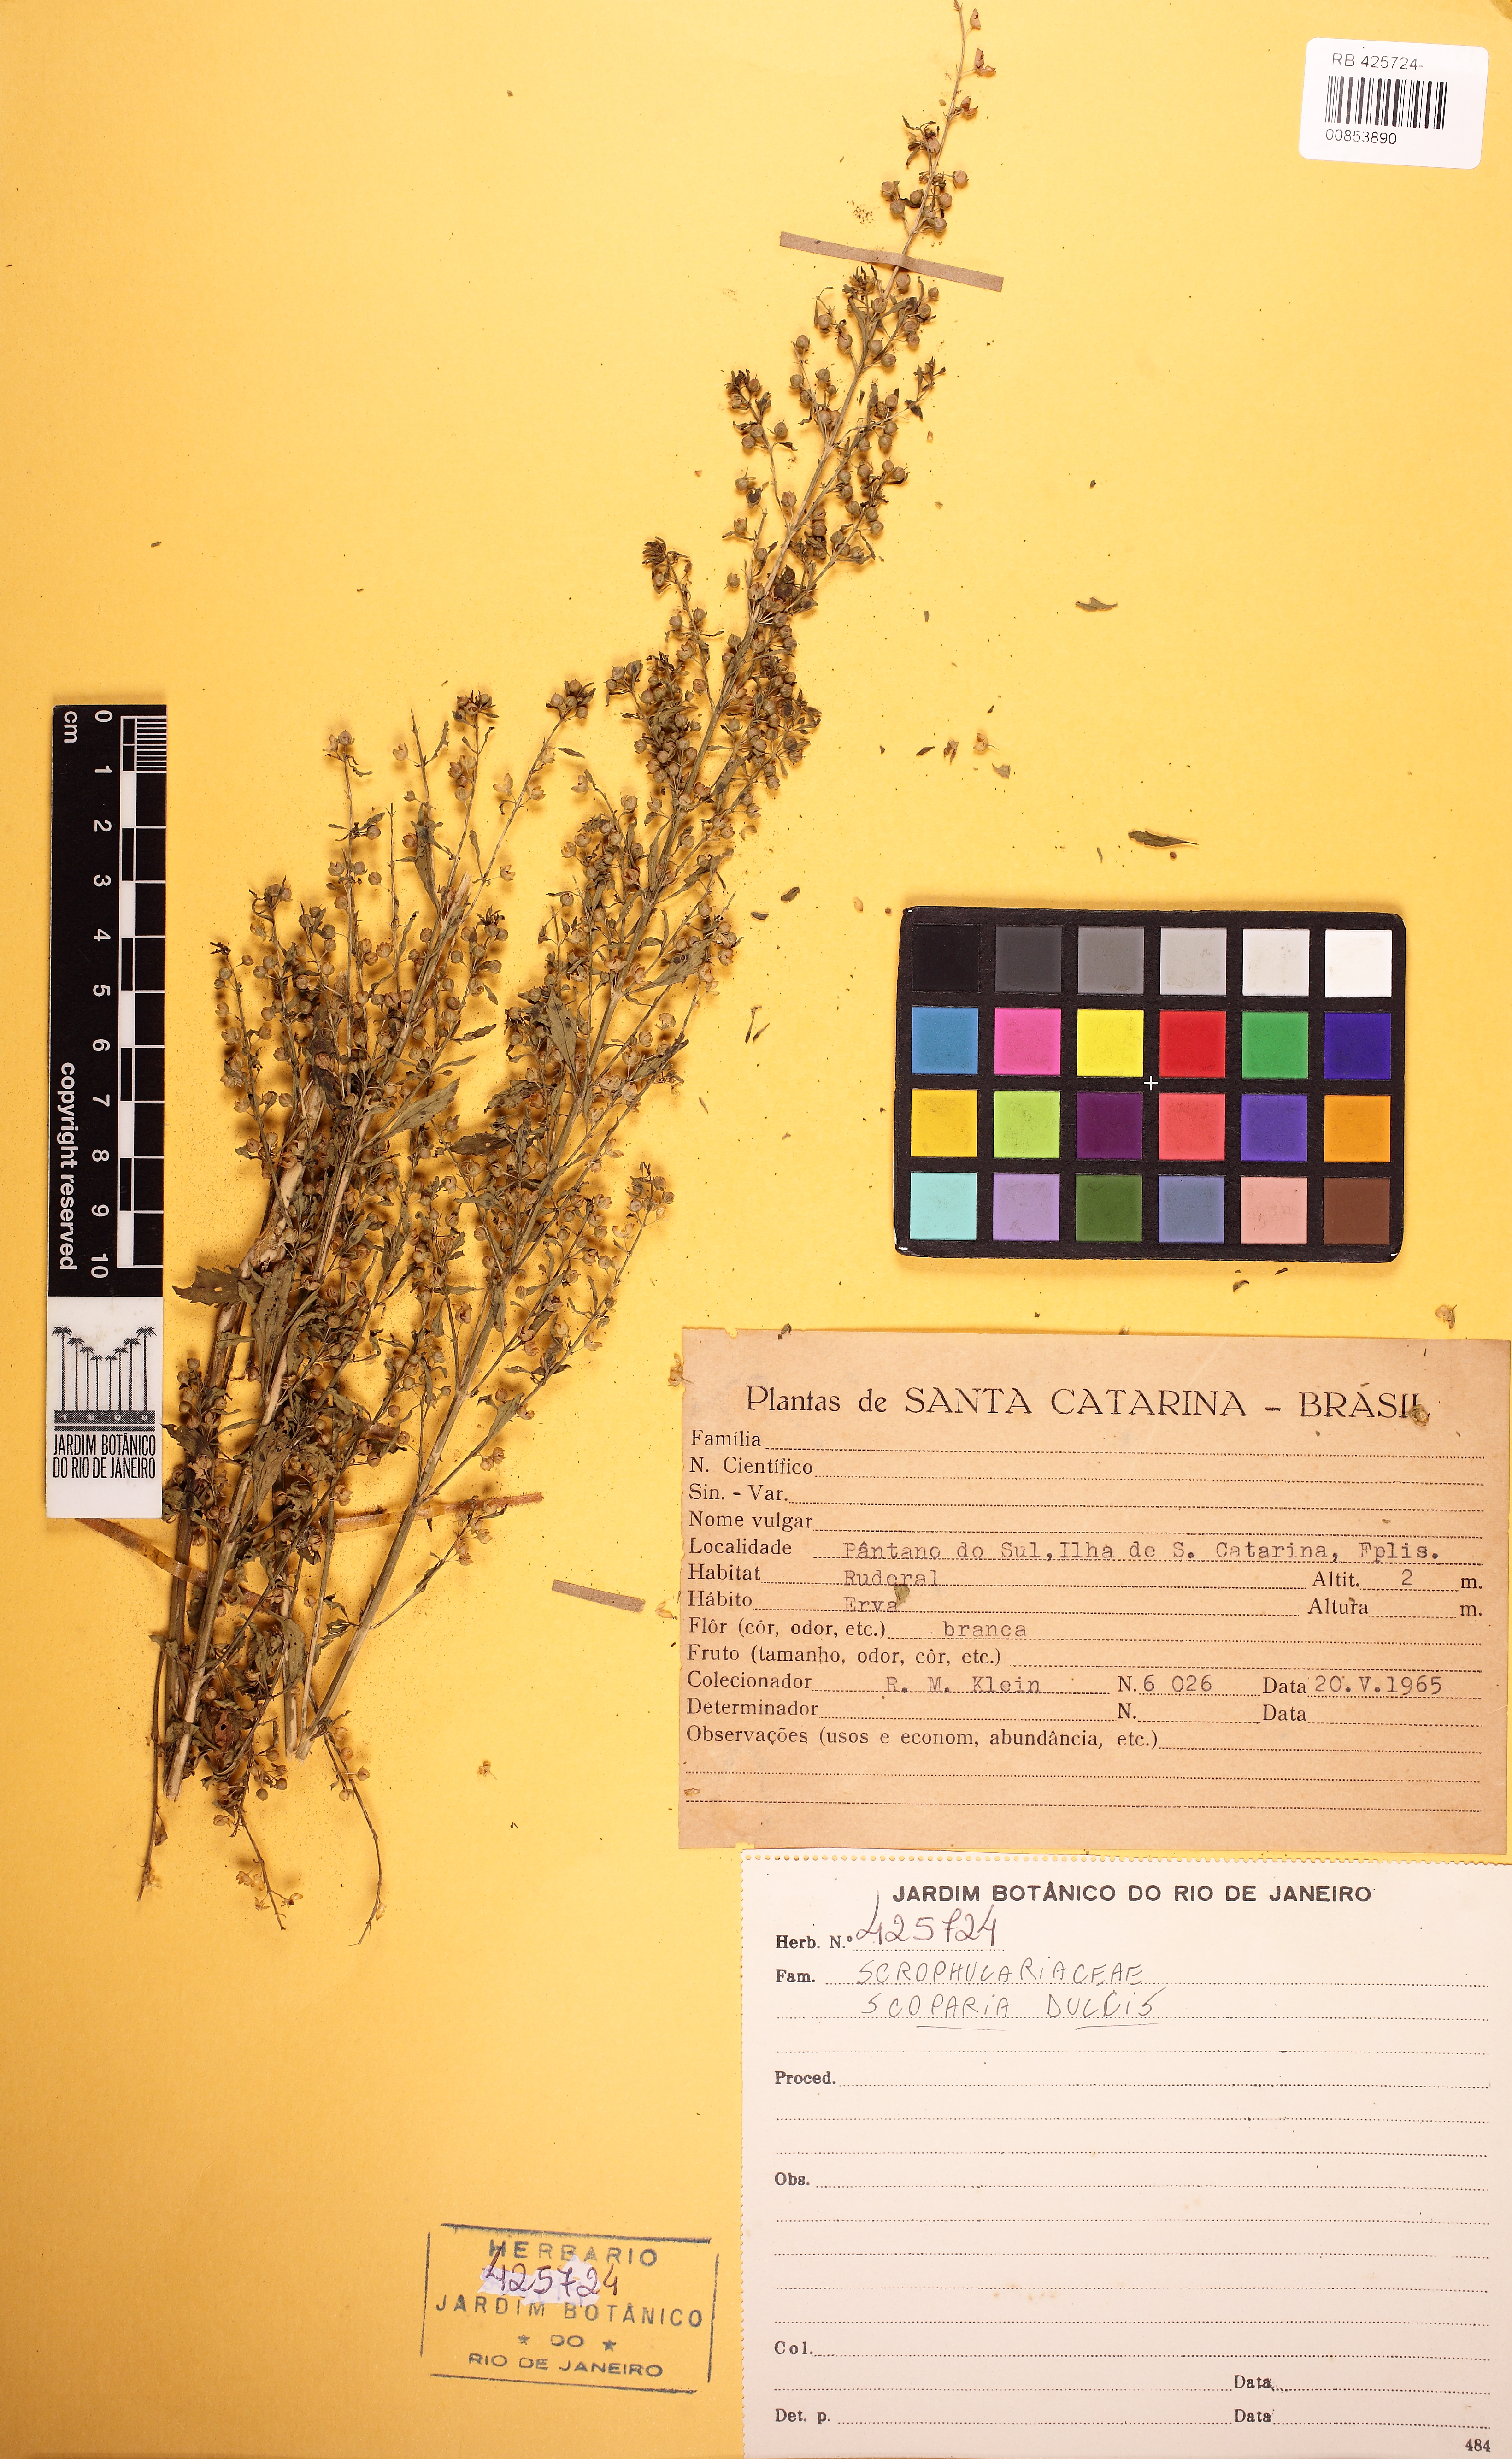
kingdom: Plantae
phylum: Tracheophyta
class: Magnoliopsida
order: Lamiales
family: Plantaginaceae
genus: Scoparia
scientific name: Scoparia dulcis
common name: Scoparia-weed
